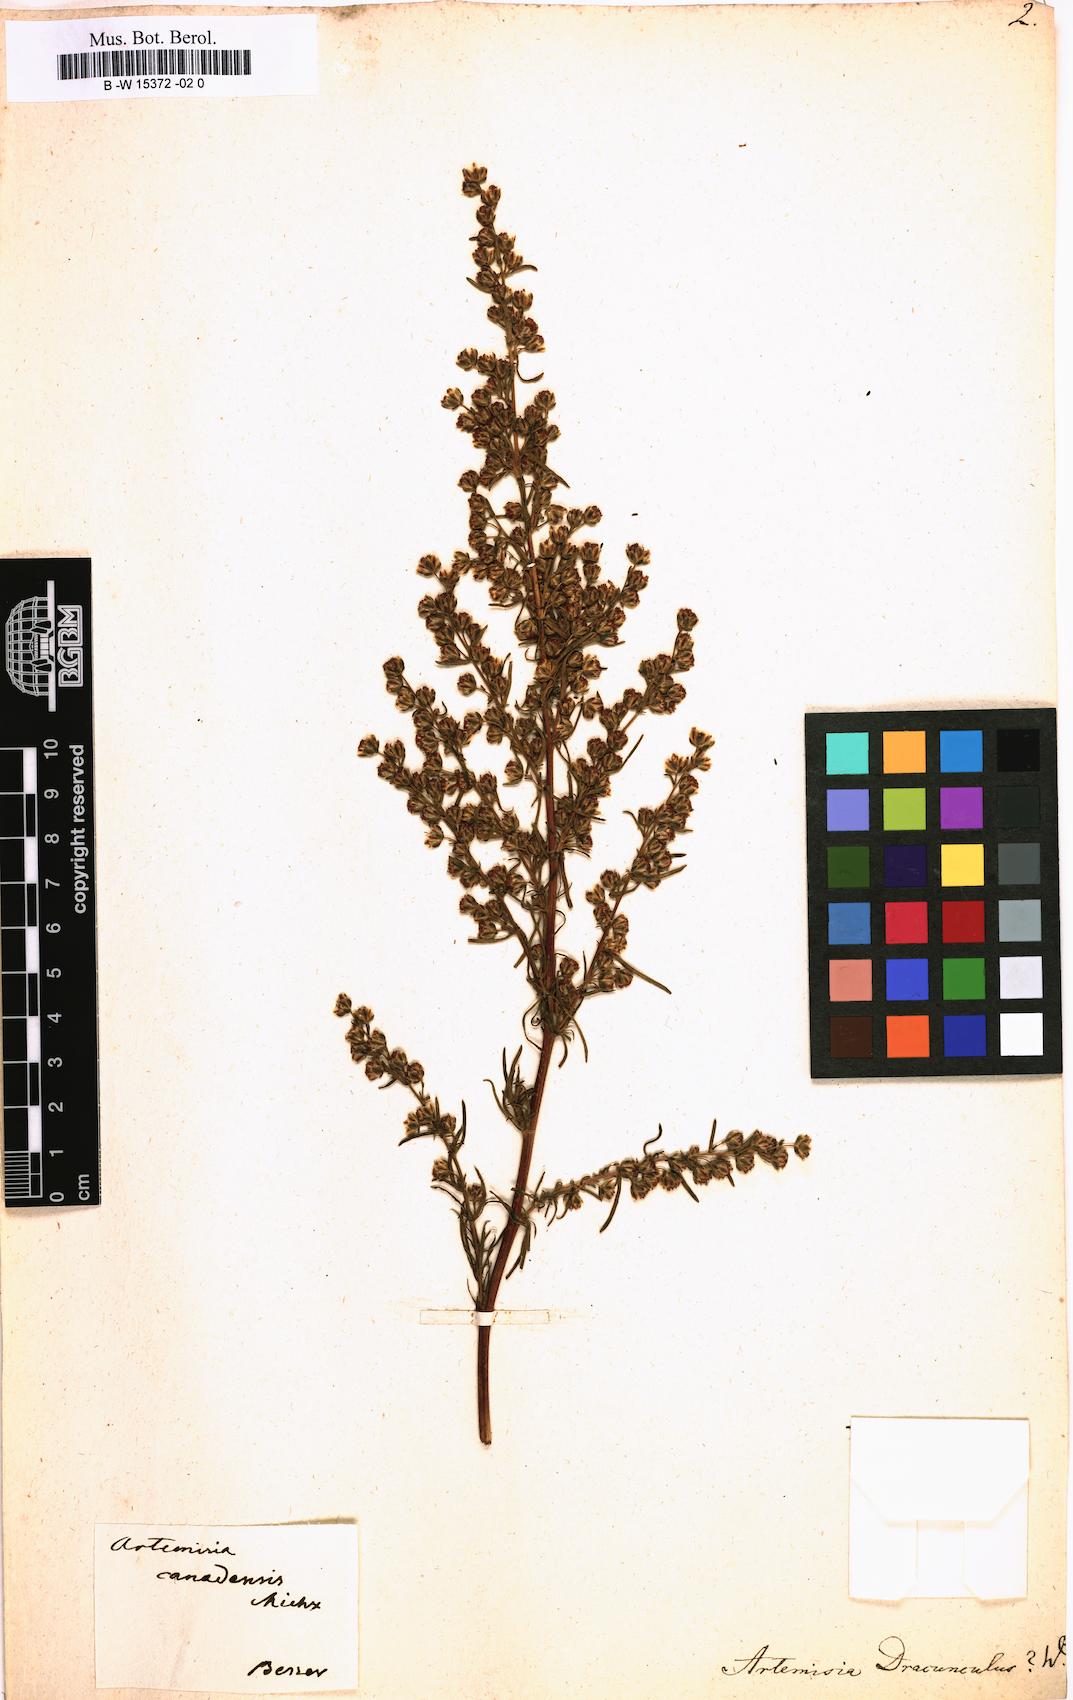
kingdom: Plantae
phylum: Tracheophyta
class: Magnoliopsida
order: Asterales
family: Asteraceae
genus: Artemisia
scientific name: Artemisia dracunculus
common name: Tarragon
